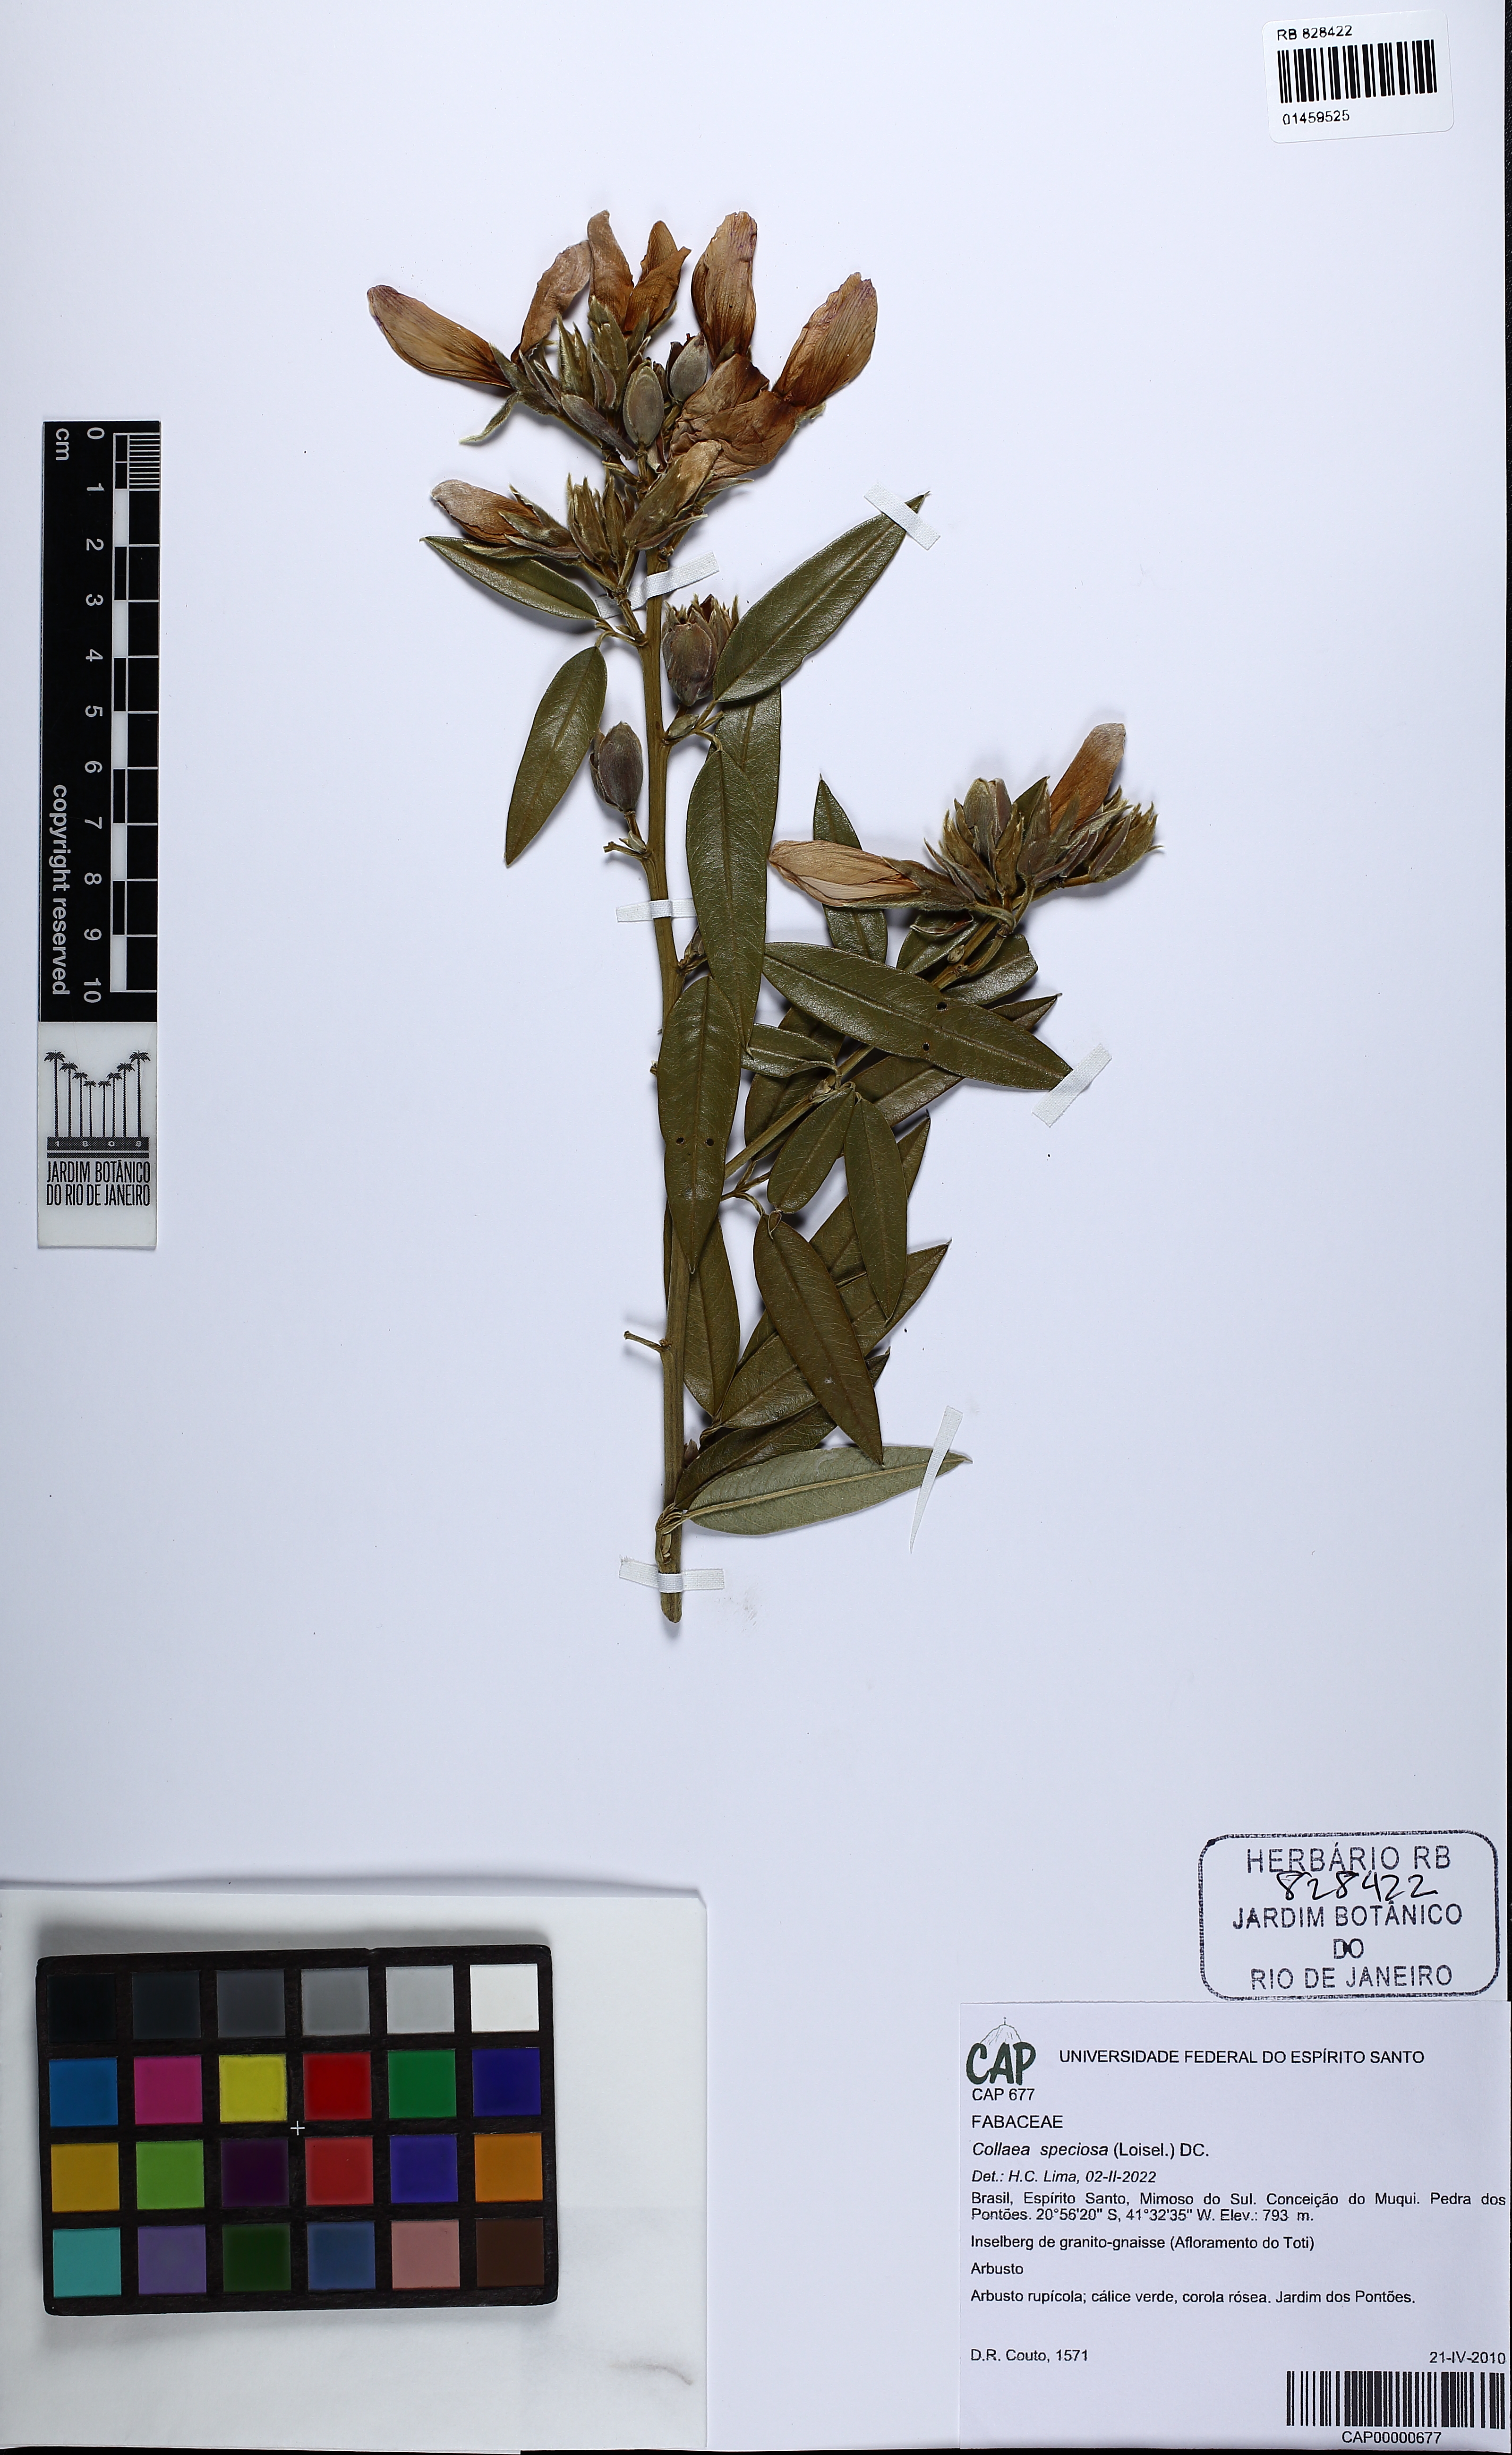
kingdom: Plantae
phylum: Tracheophyta
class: Magnoliopsida
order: Fabales
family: Fabaceae
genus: Collaea
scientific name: Collaea speciosa
